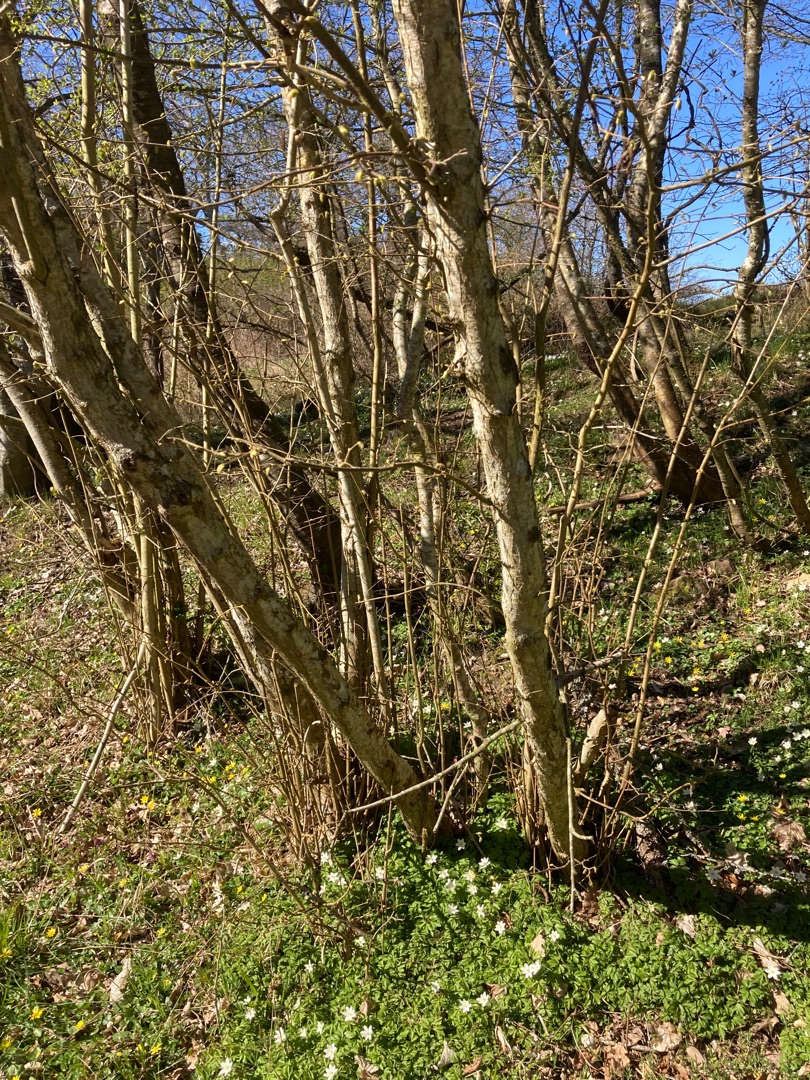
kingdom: Plantae
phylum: Tracheophyta
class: Magnoliopsida
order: Fagales
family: Betulaceae
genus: Corylus
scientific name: Corylus avellana
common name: Hassel
